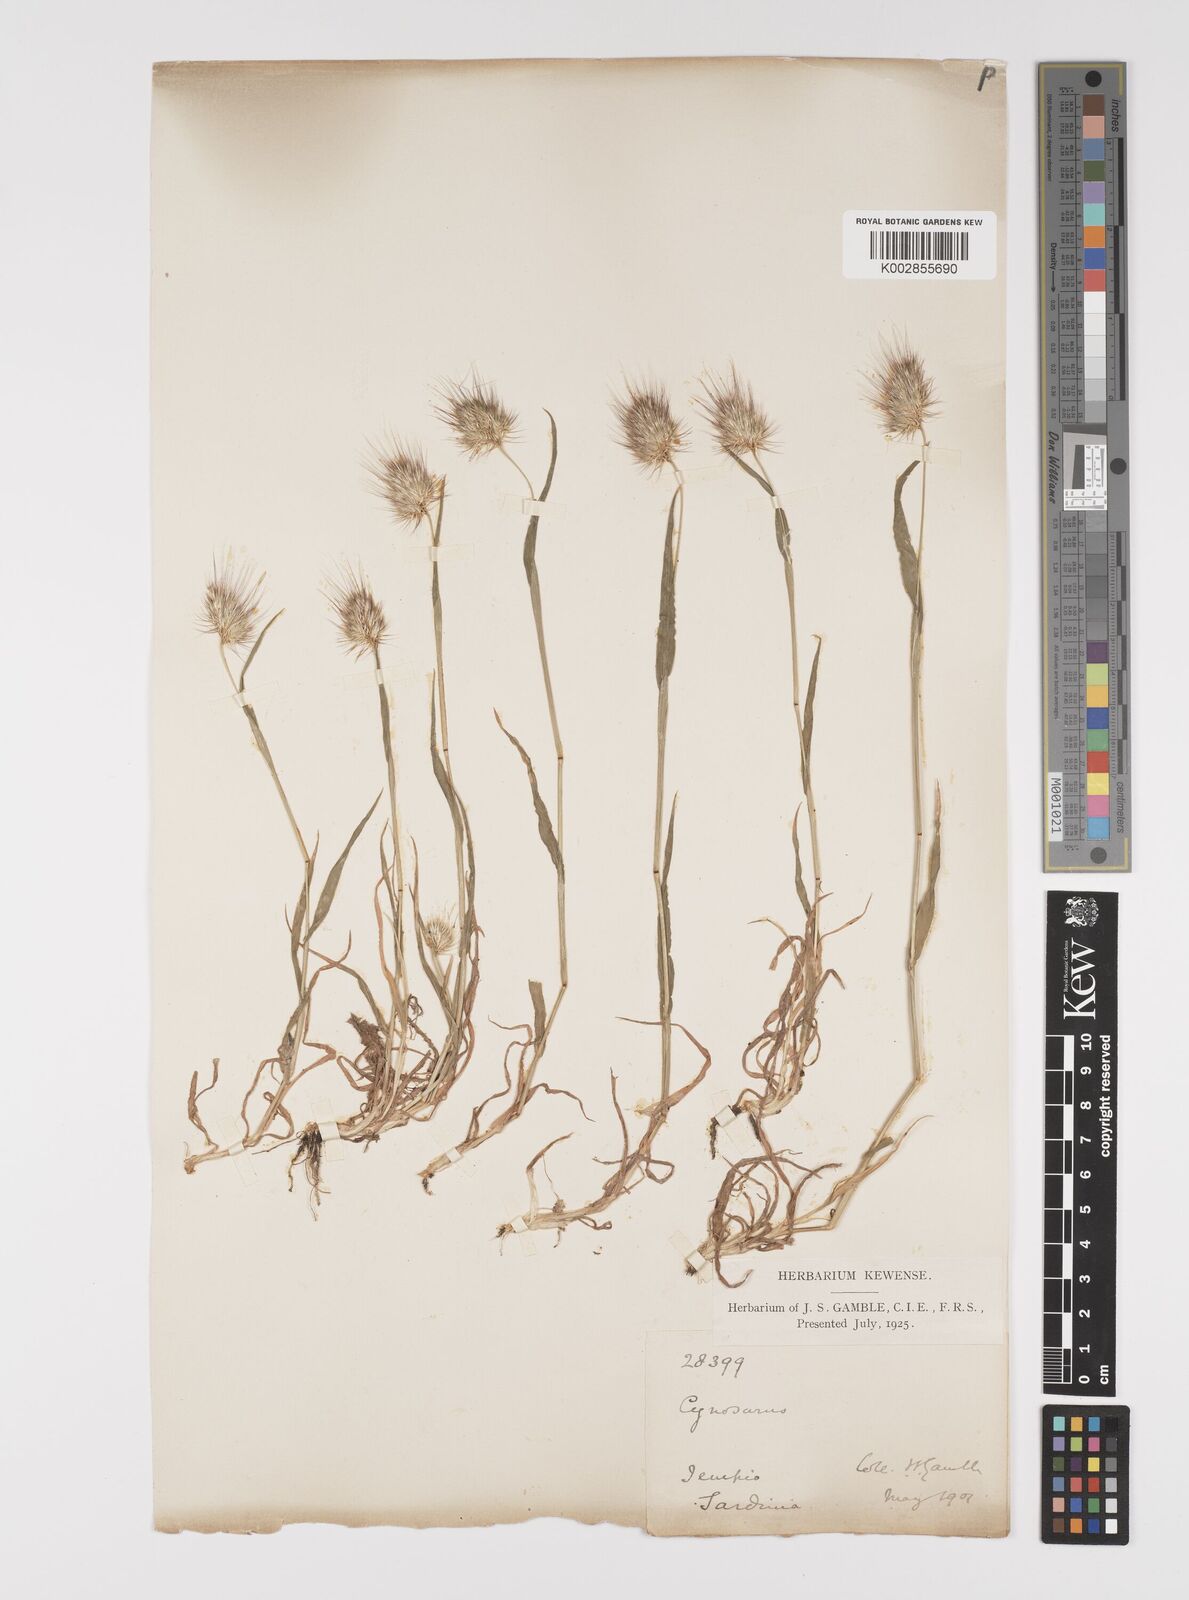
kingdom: Plantae
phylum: Tracheophyta
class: Liliopsida
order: Poales
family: Poaceae
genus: Cynosurus
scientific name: Cynosurus echinatus
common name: Rough dog's-tail
